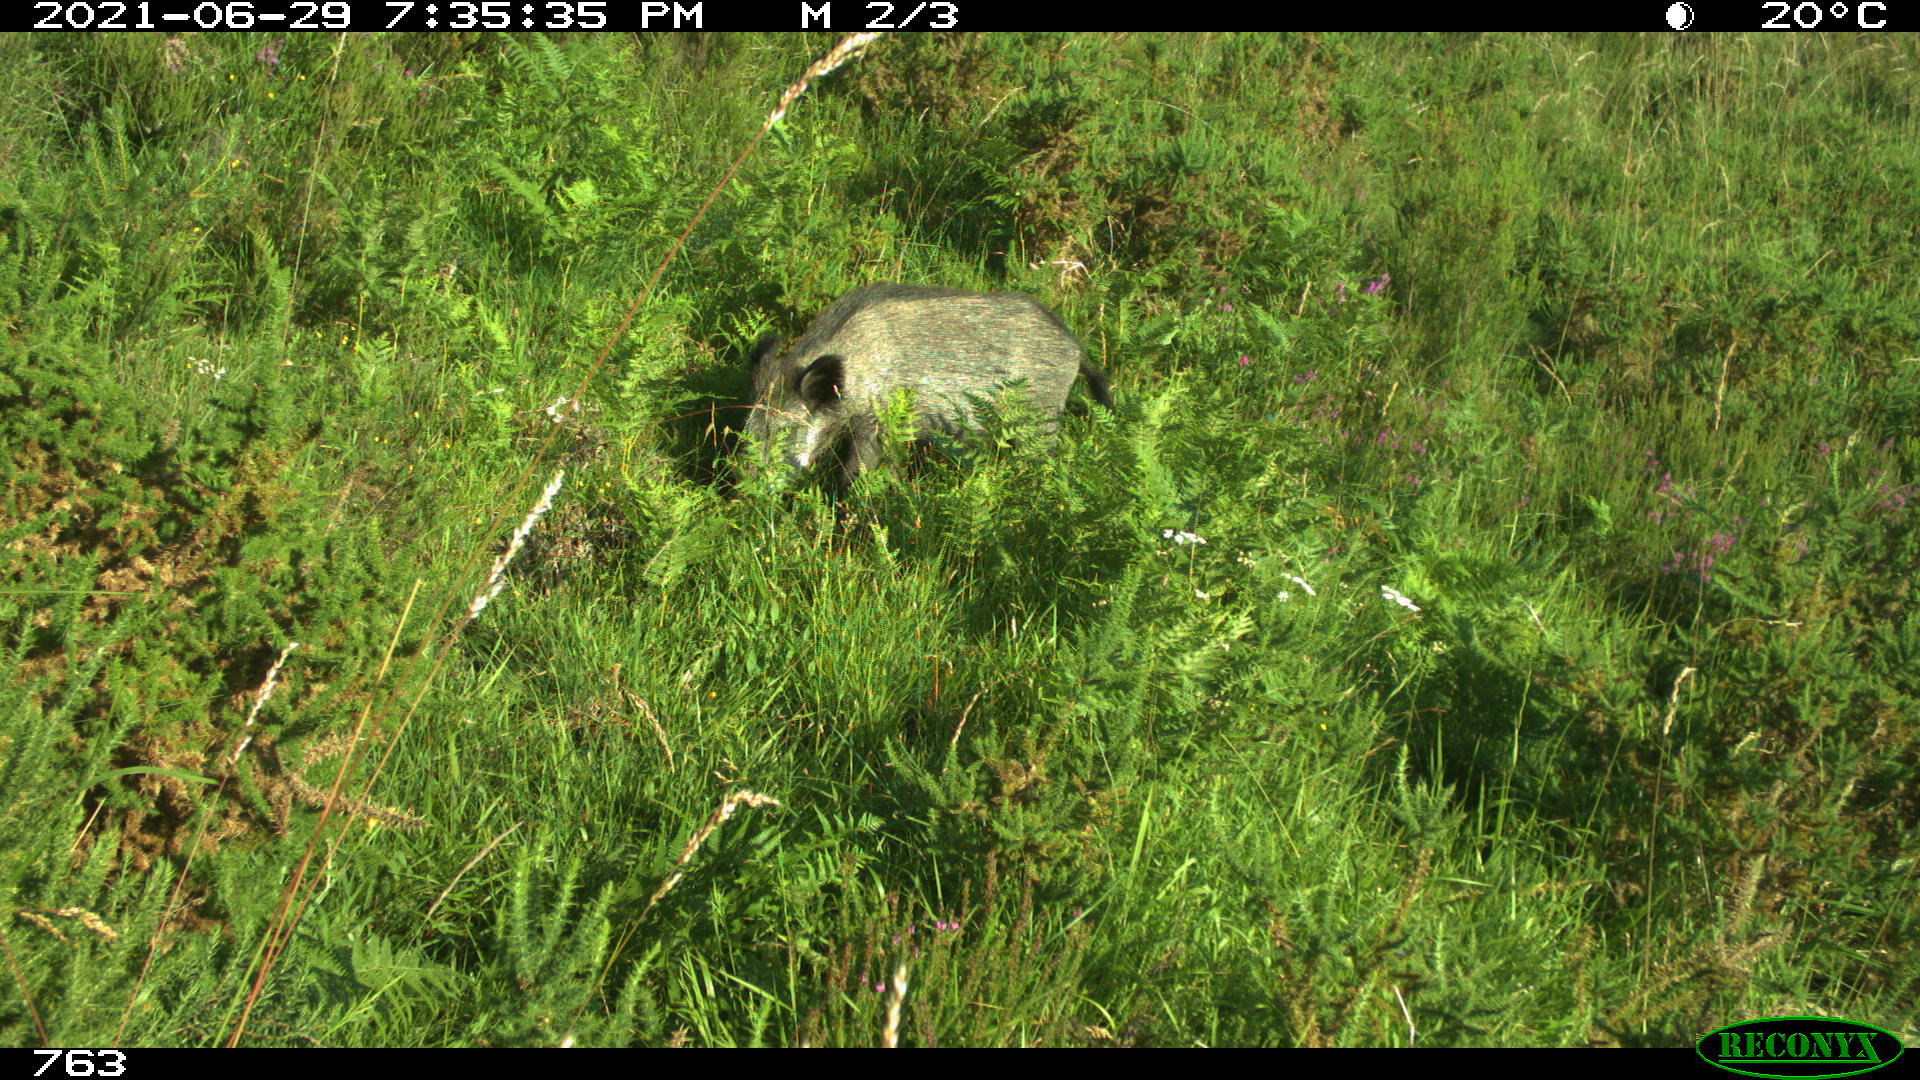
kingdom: Animalia
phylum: Chordata
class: Mammalia
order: Artiodactyla
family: Suidae
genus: Sus
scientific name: Sus scrofa
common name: Wild boar
